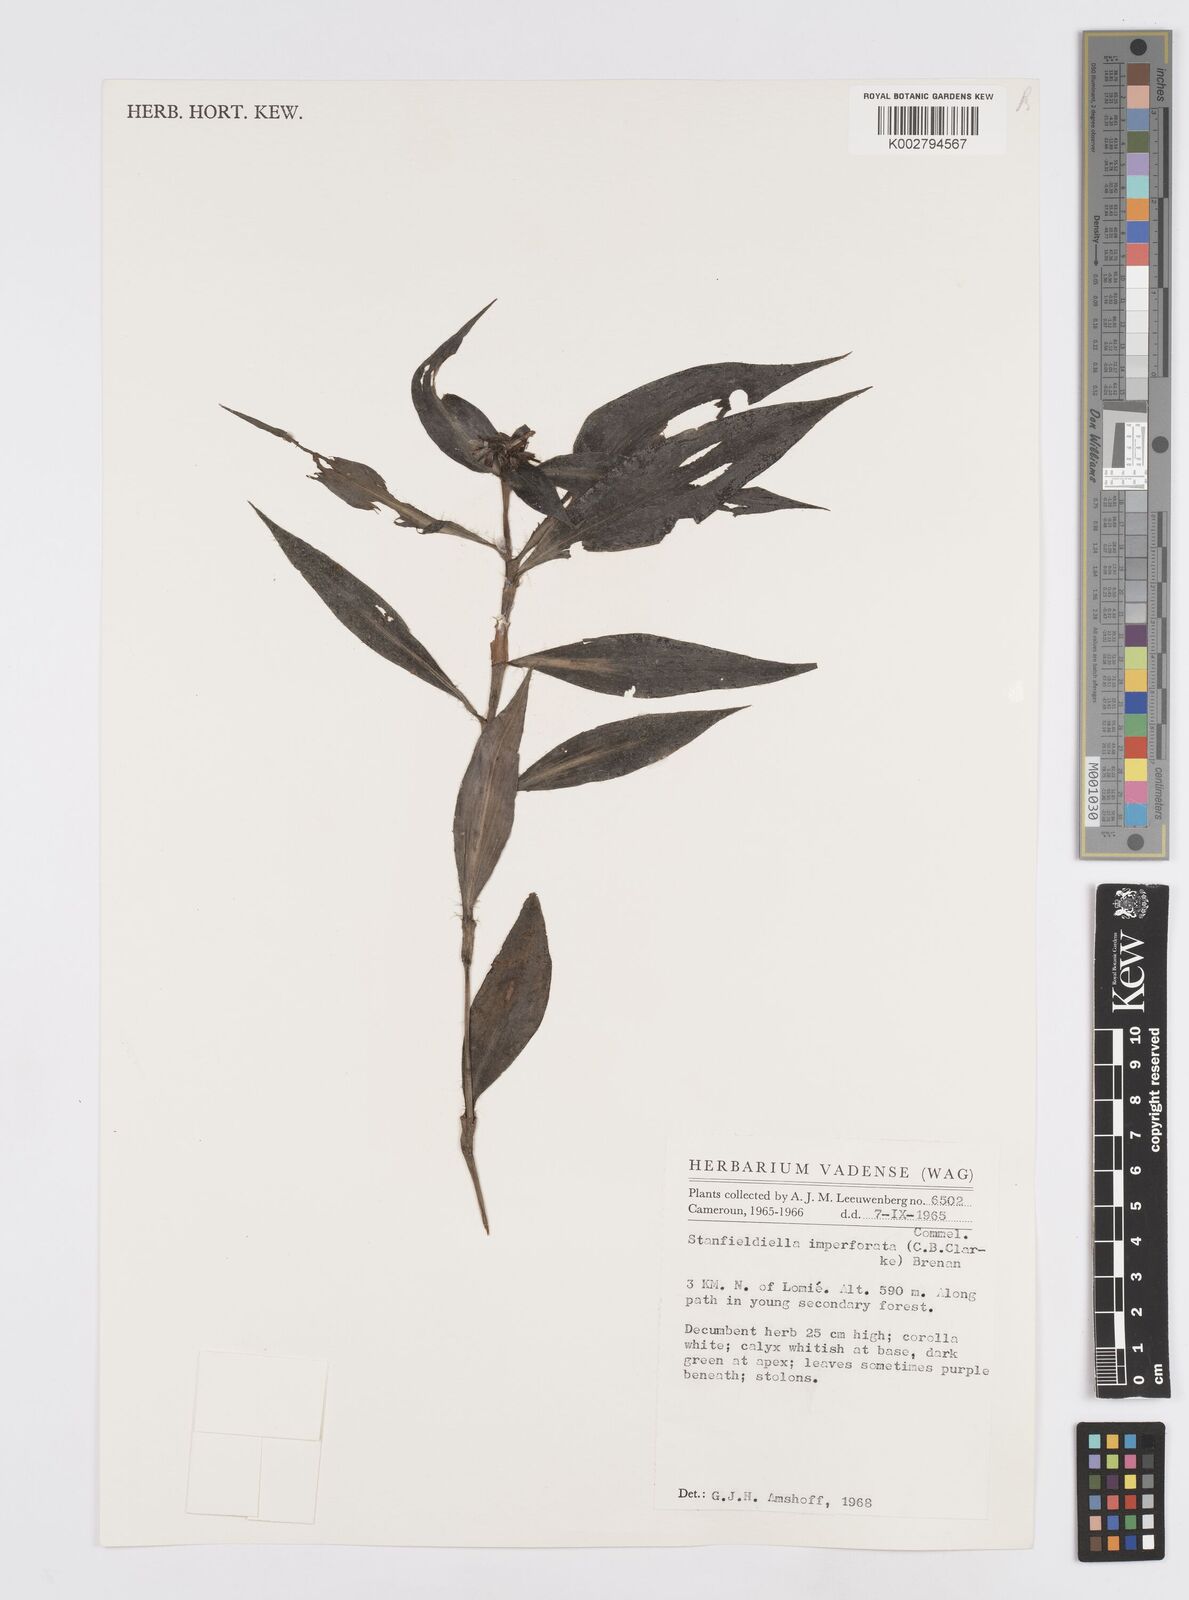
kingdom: Plantae
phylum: Tracheophyta
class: Liliopsida
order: Commelinales
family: Commelinaceae
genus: Stanfieldiella
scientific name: Stanfieldiella imperforata
